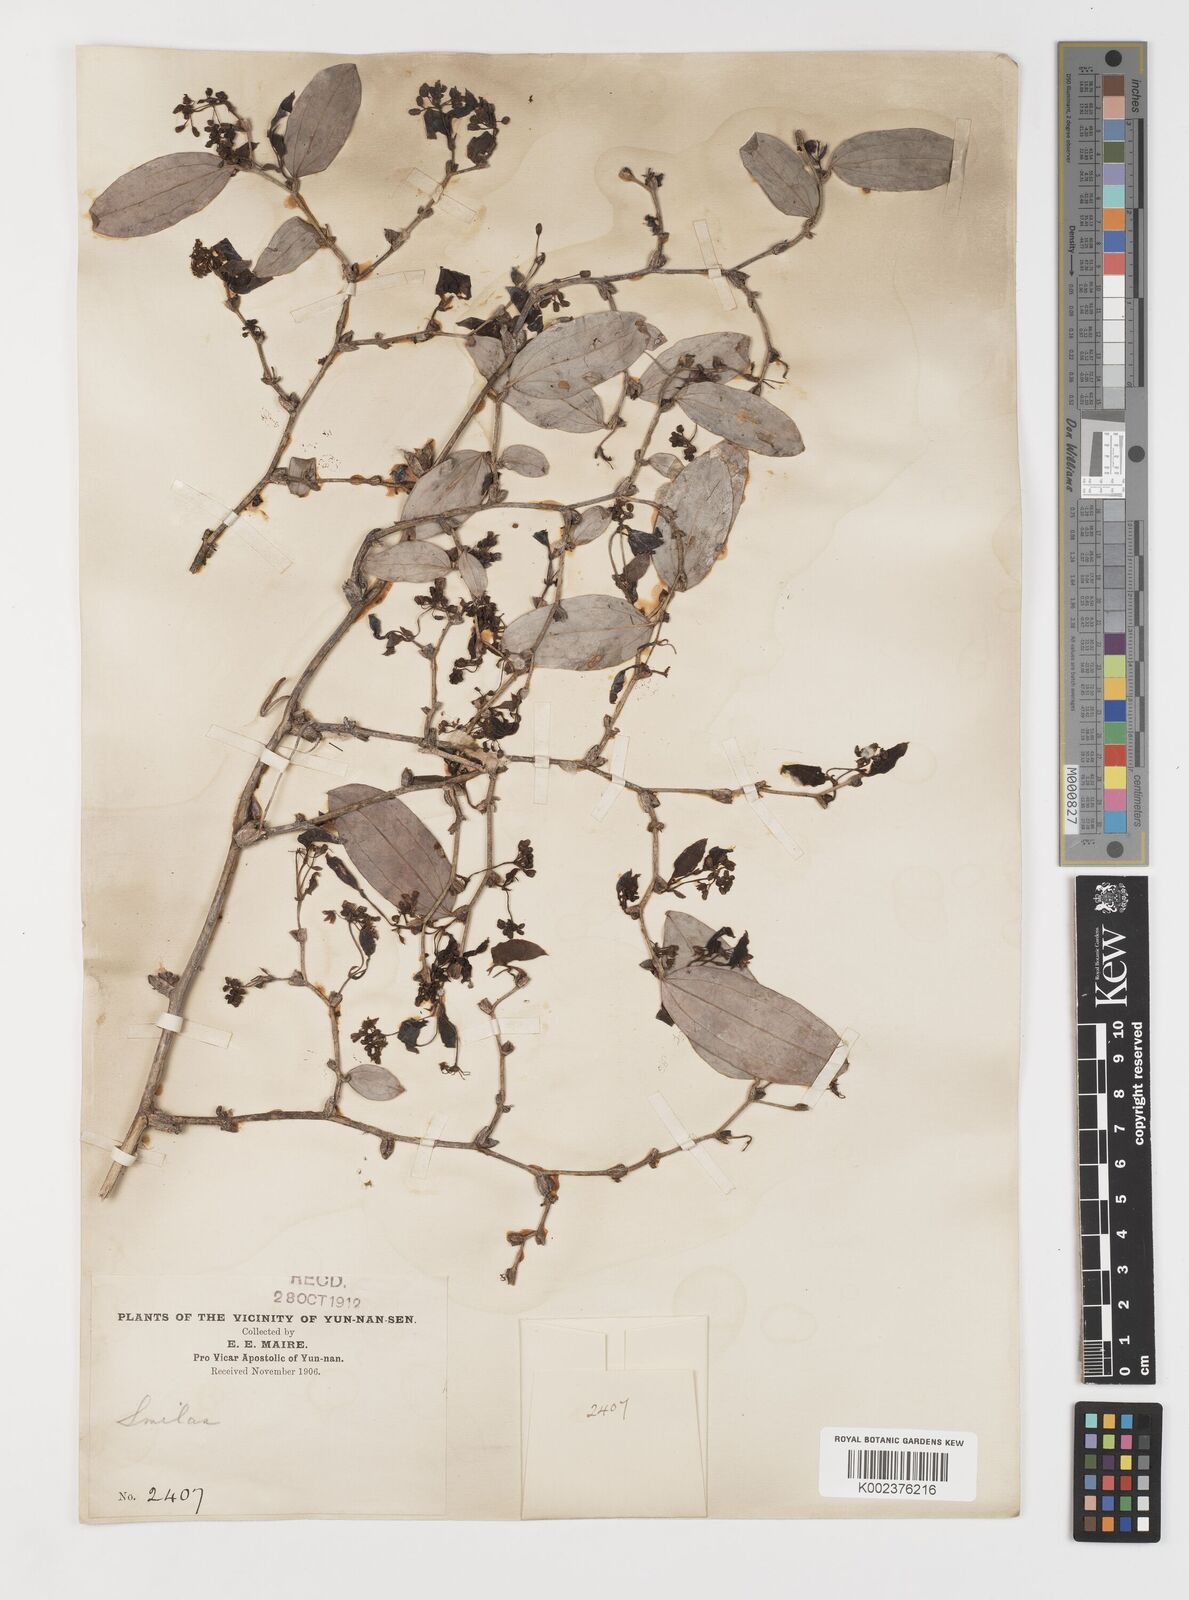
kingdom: Plantae
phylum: Tracheophyta
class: Liliopsida
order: Liliales
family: Smilacaceae
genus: Smilax
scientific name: Smilax ferox
